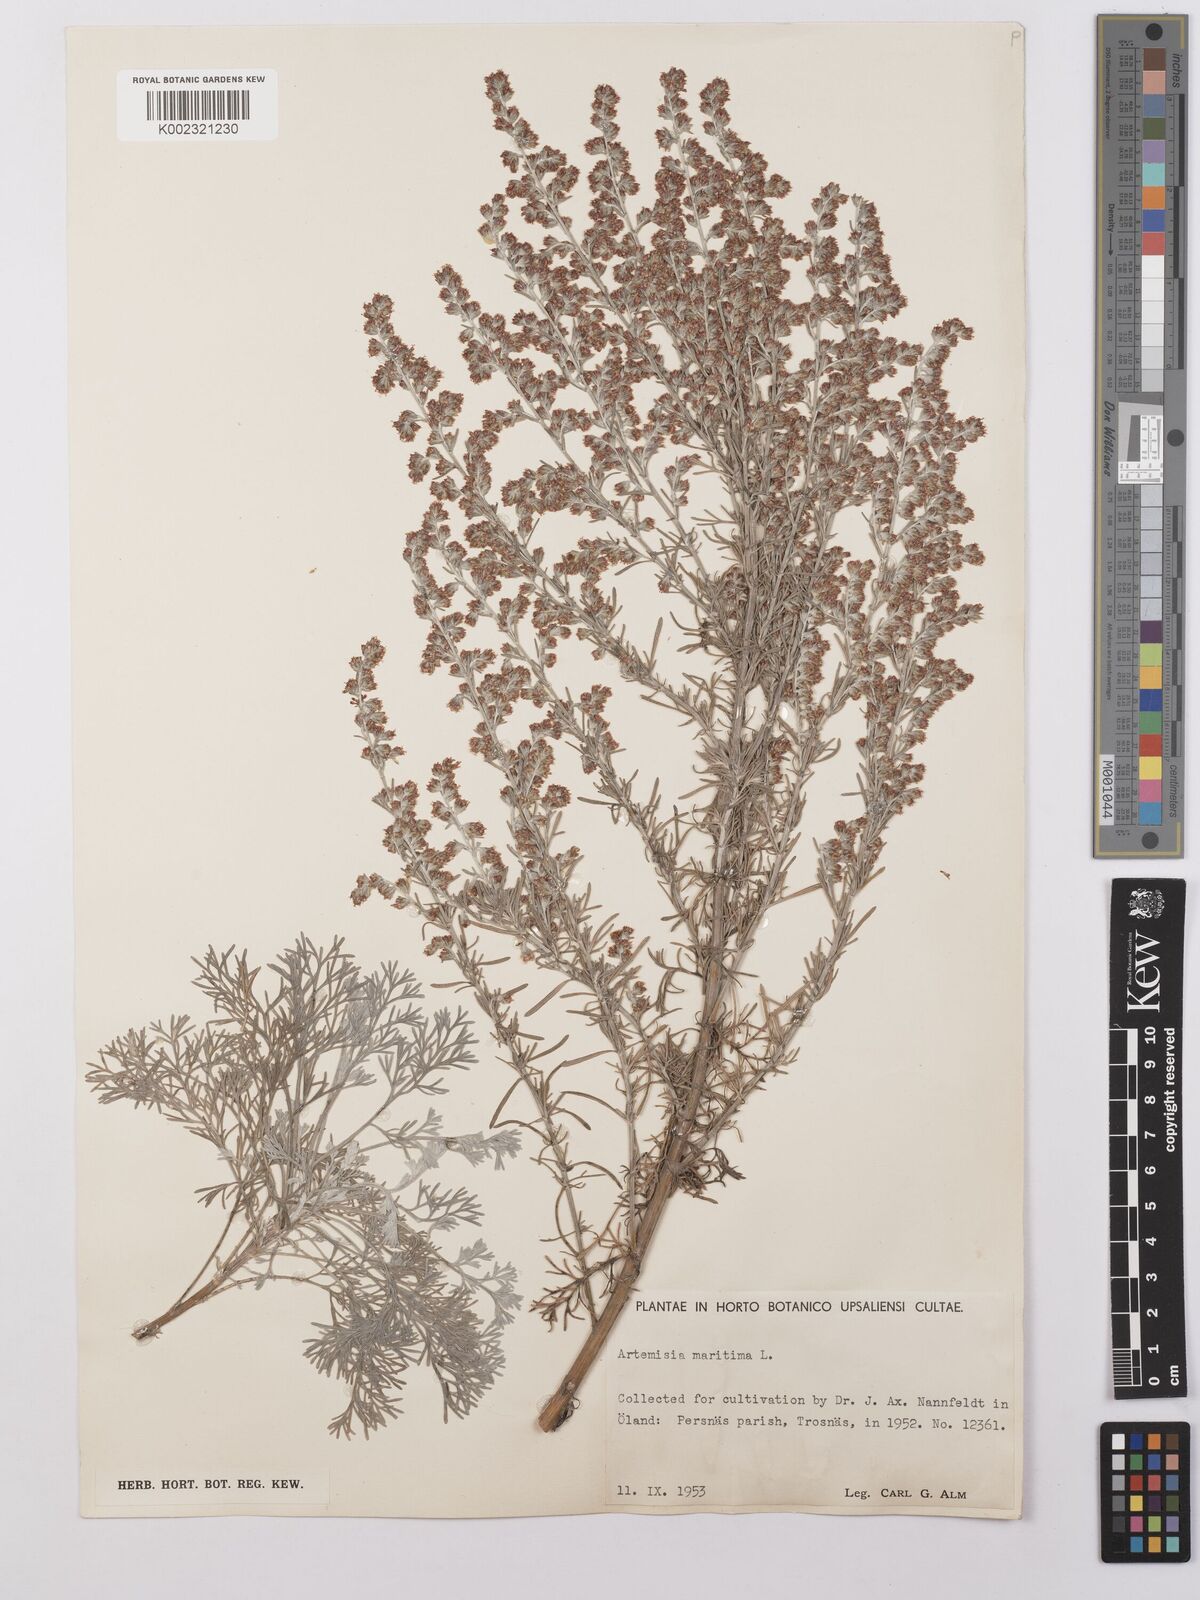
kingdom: Plantae
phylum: Tracheophyta
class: Magnoliopsida
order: Asterales
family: Asteraceae
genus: Artemisia
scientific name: Artemisia maritima
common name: Wormseed
